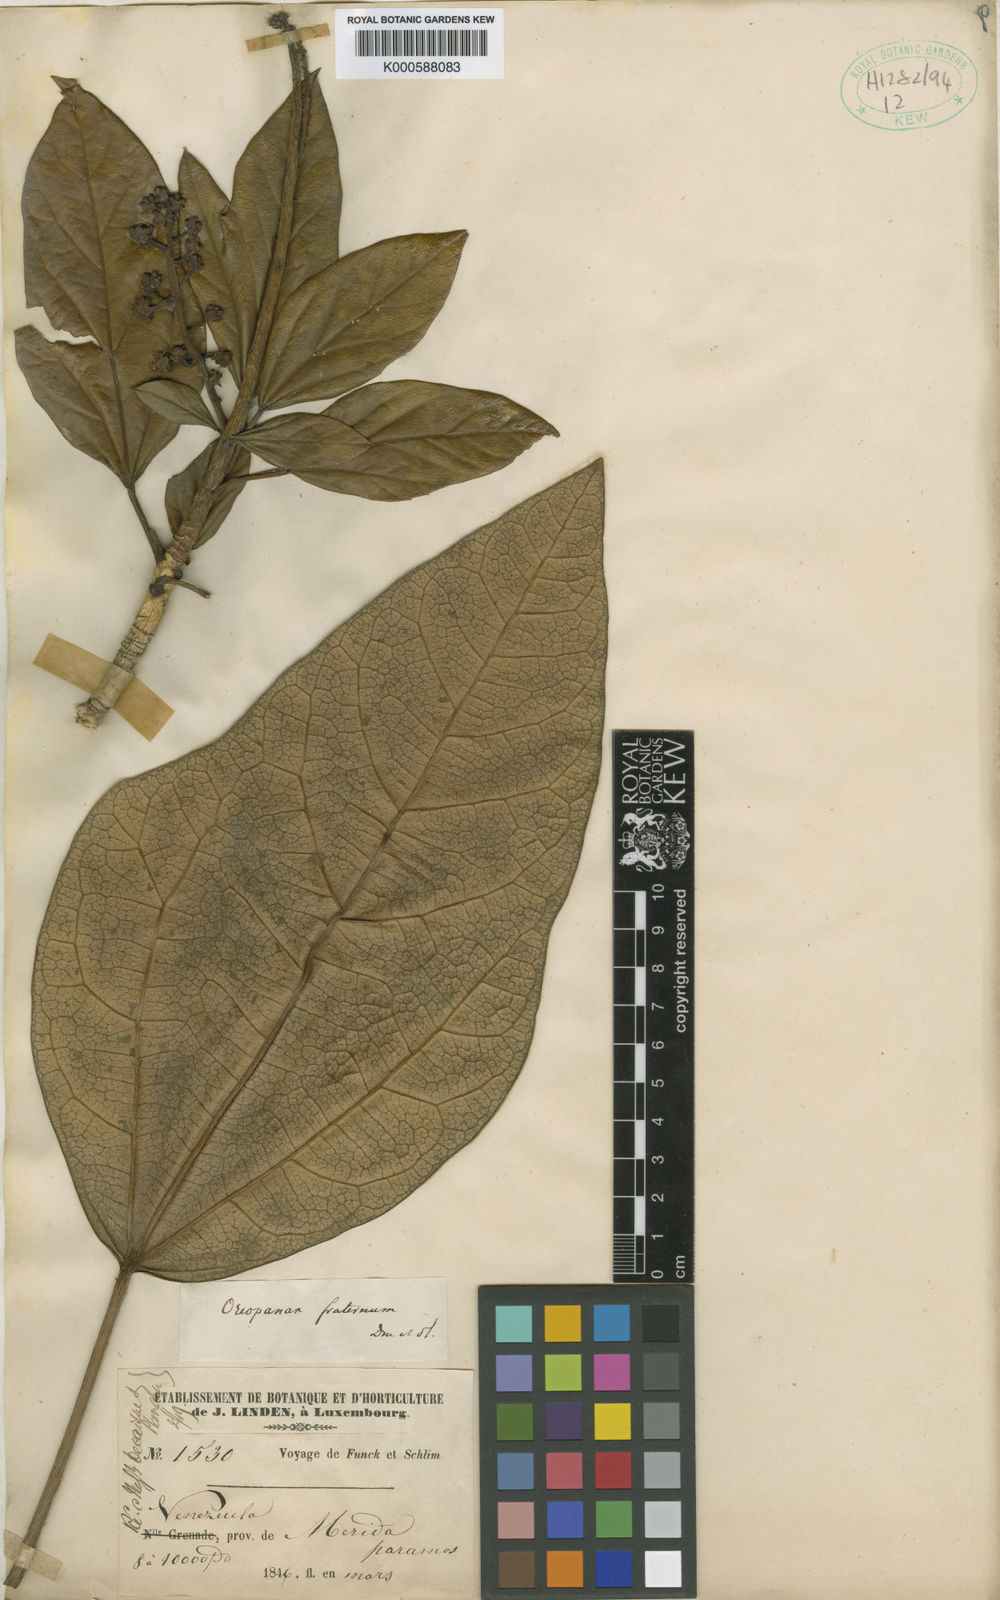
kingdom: Plantae
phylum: Tracheophyta
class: Magnoliopsida
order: Apiales
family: Araliaceae
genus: Oreopanax
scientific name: Oreopanax
